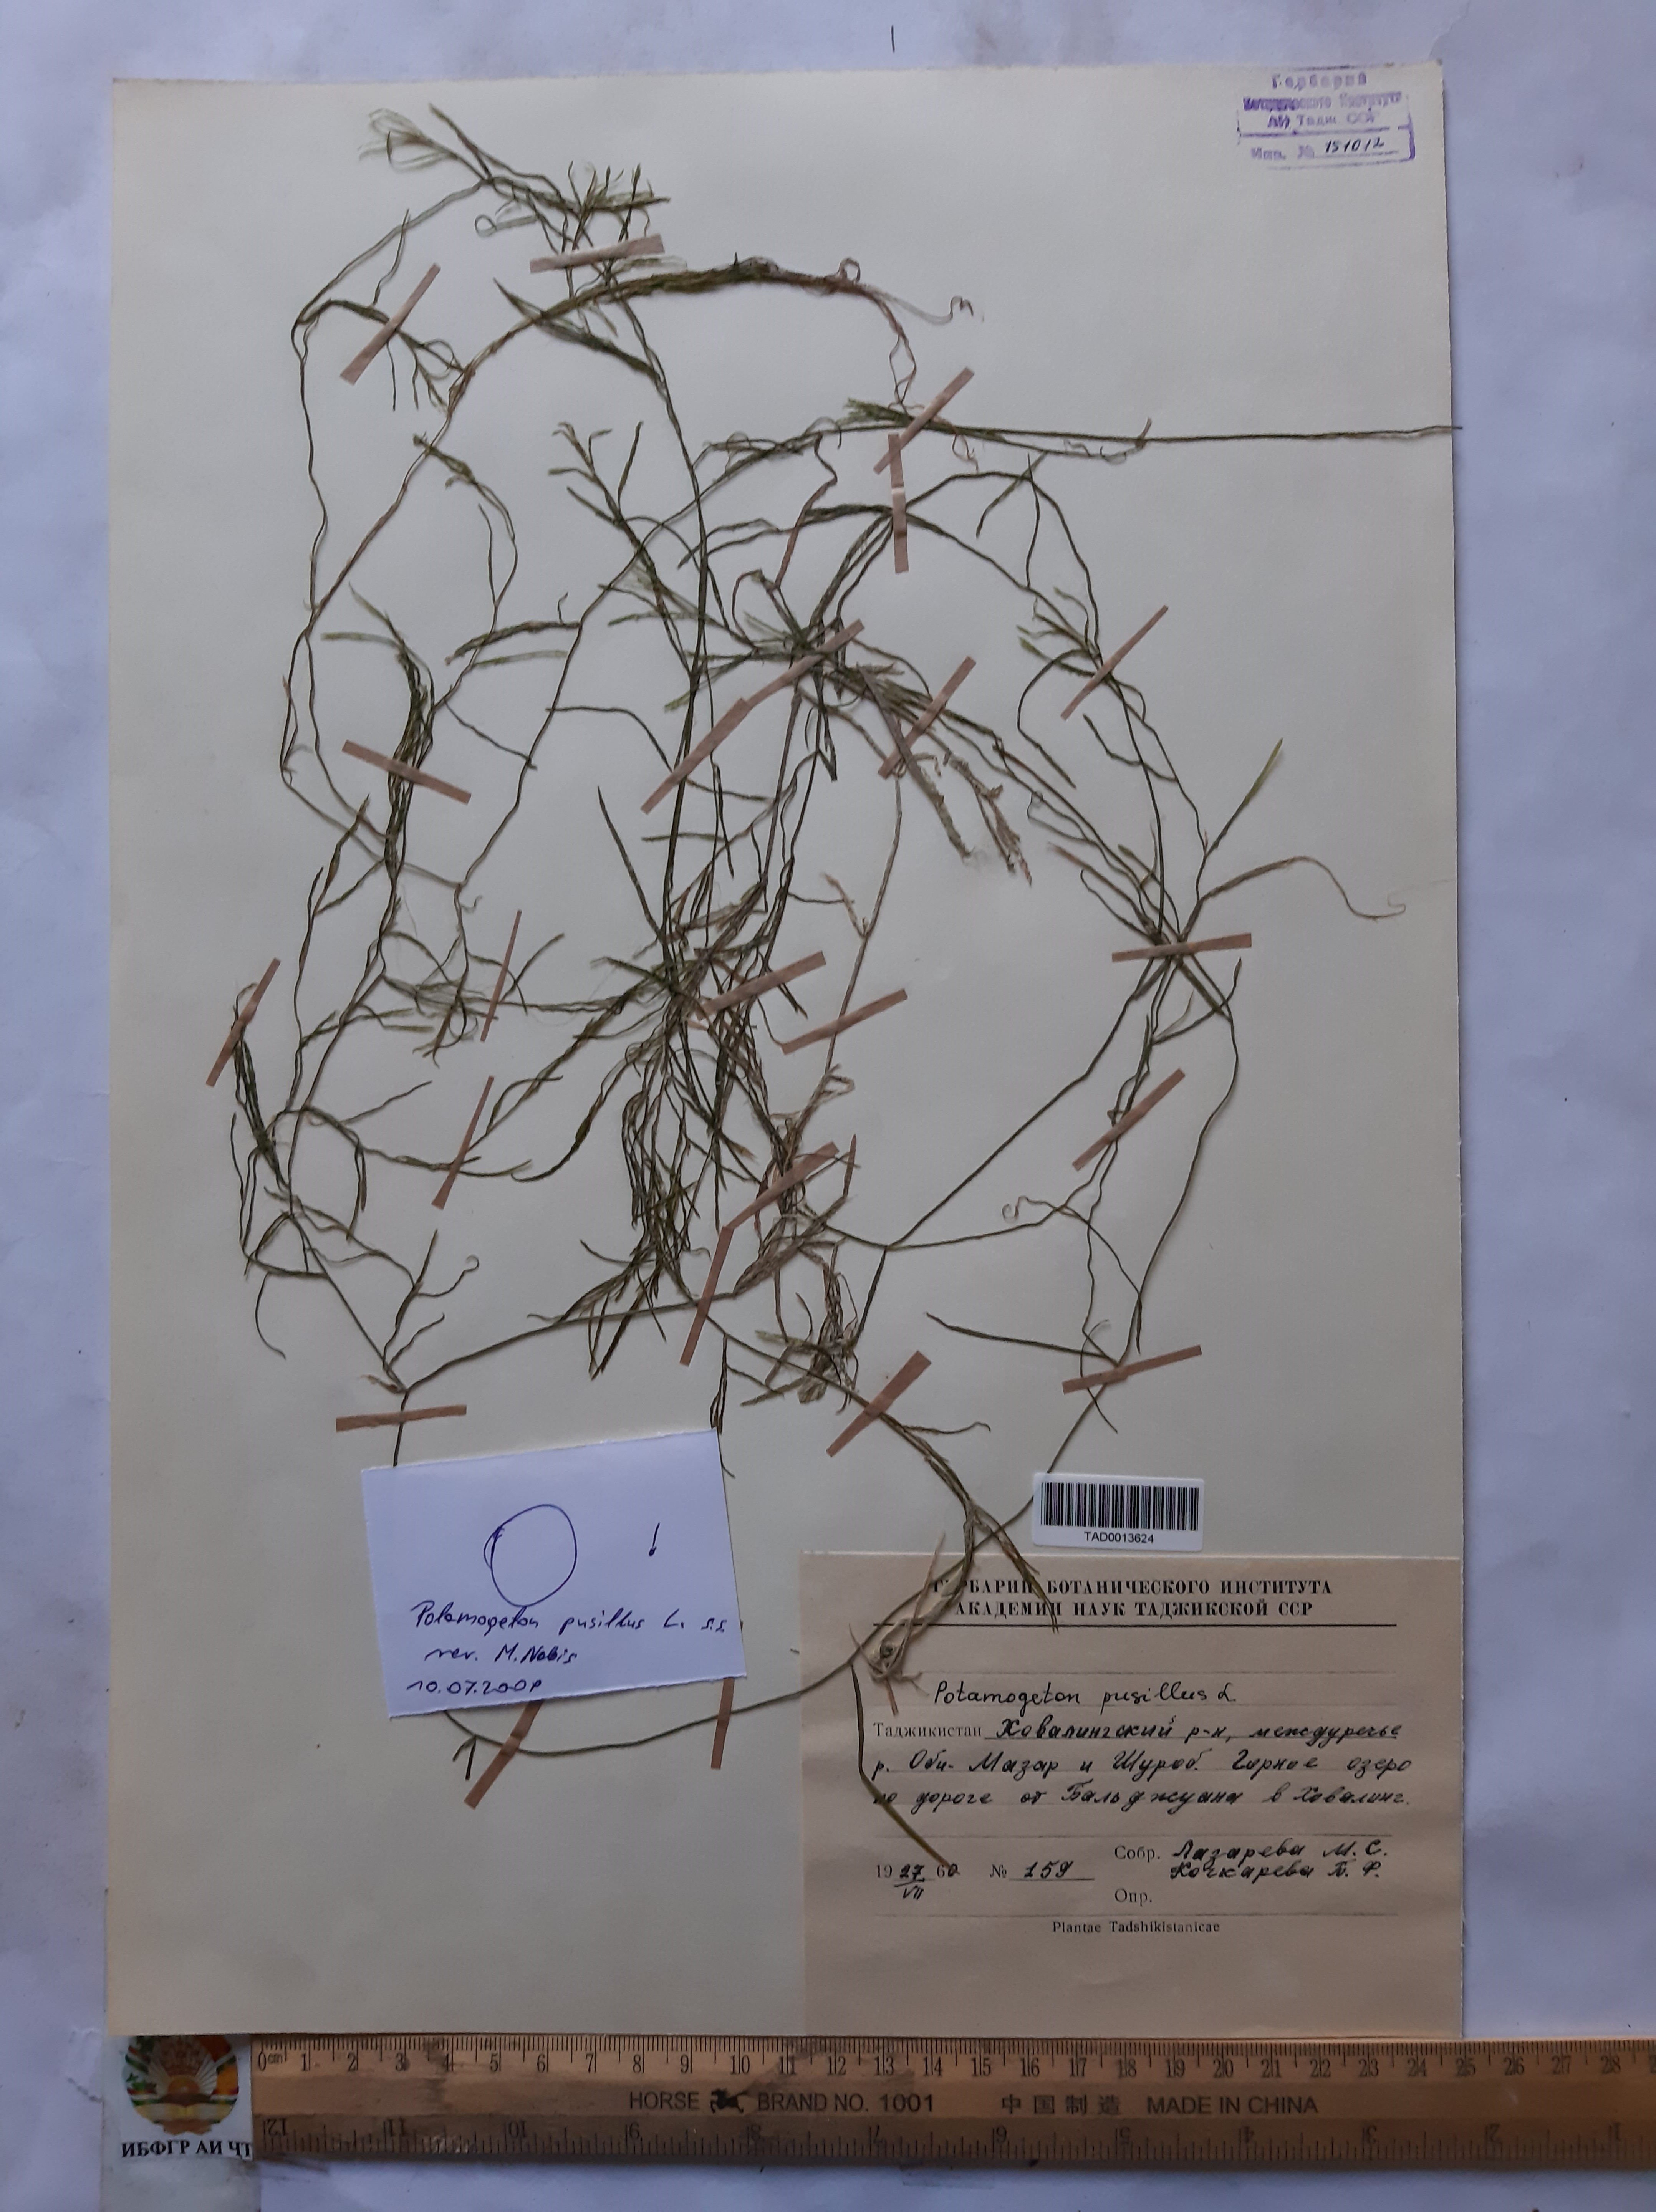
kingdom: Plantae
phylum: Tracheophyta
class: Liliopsida
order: Alismatales
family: Potamogetonaceae
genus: Potamogeton
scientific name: Potamogeton pusillus
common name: Lesser pondweed
